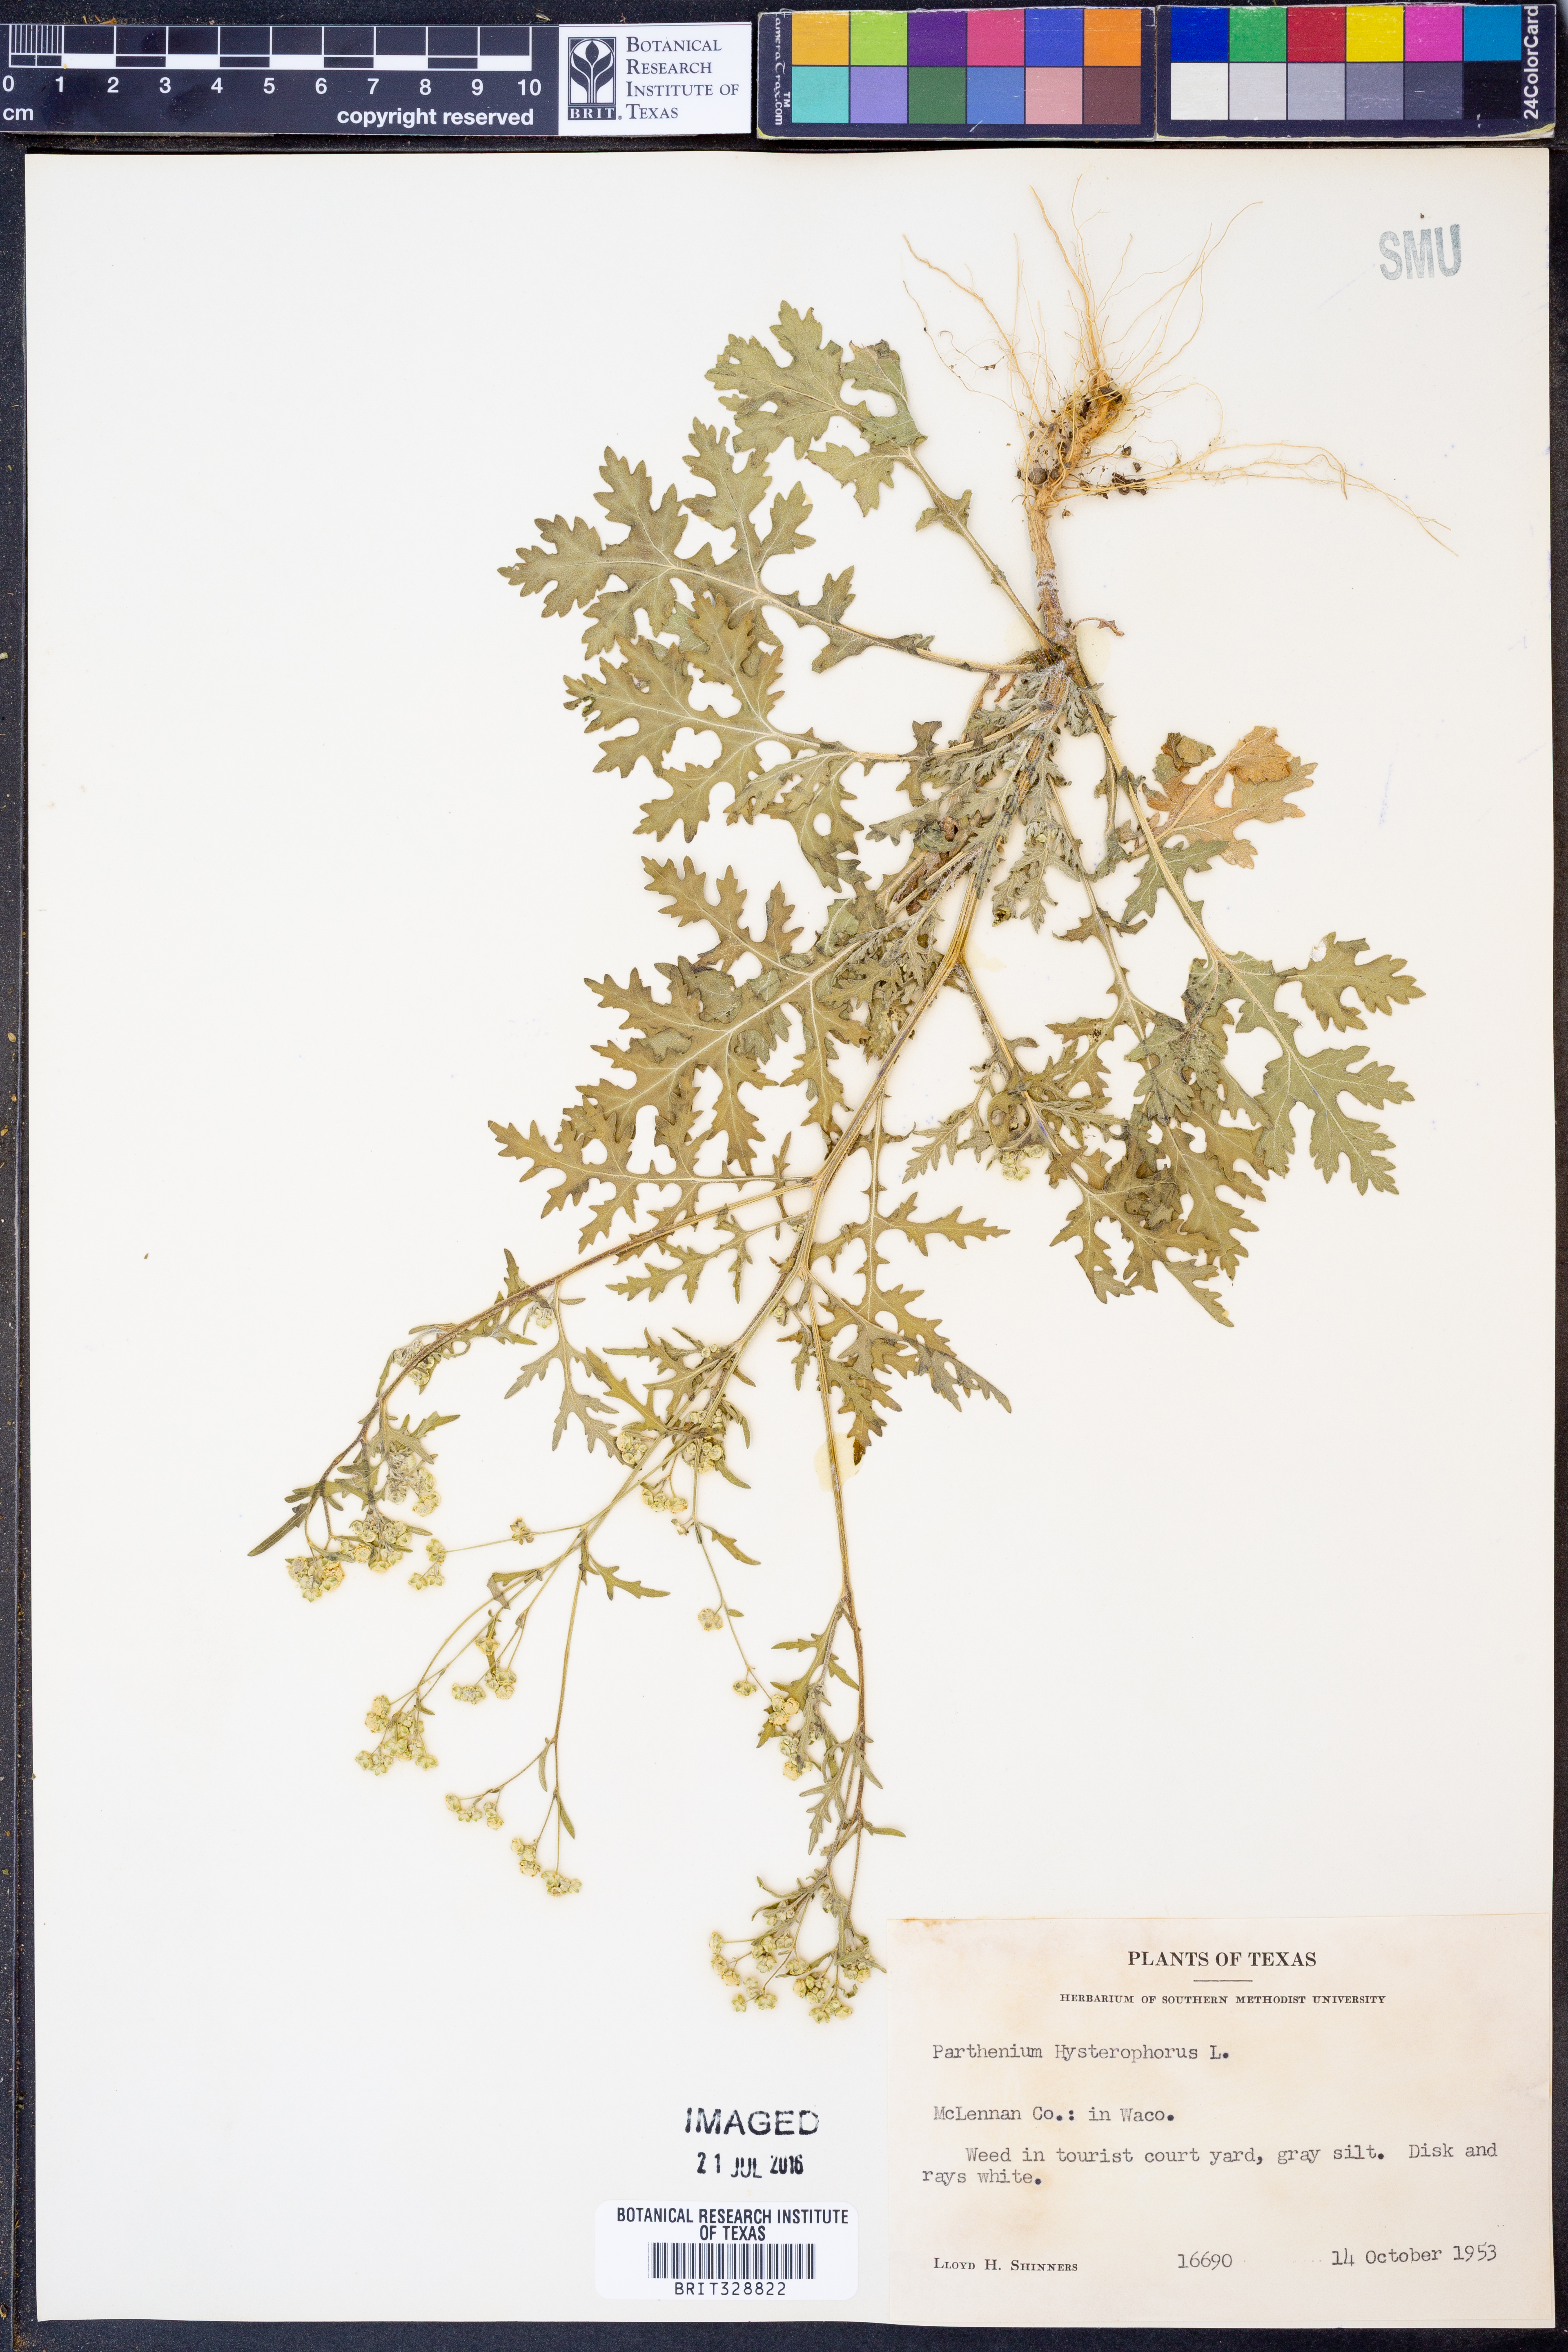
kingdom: Plantae
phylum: Tracheophyta
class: Magnoliopsida
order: Asterales
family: Asteraceae
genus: Parthenium
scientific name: Parthenium hysterophorus
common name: Santa maria feverfew
